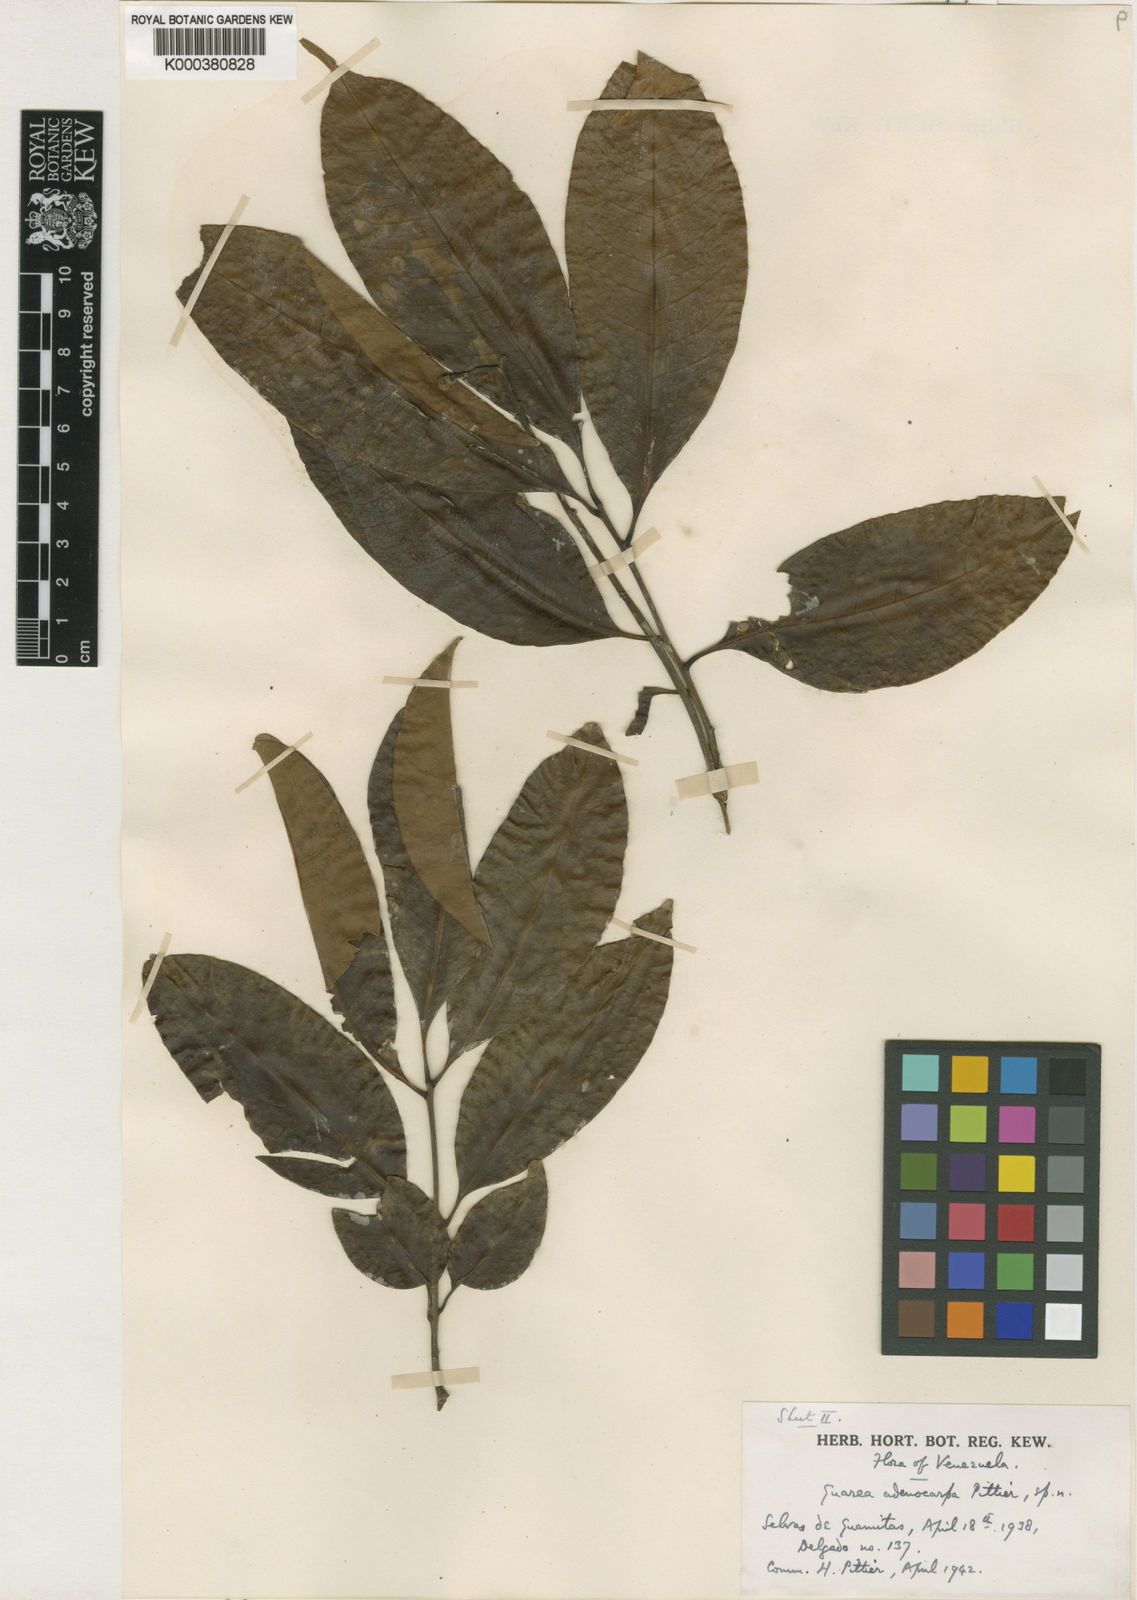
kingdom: Plantae
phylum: Tracheophyta
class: Magnoliopsida
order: Sapindales
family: Meliaceae
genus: Trichilia
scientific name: Trichilia pleeana
